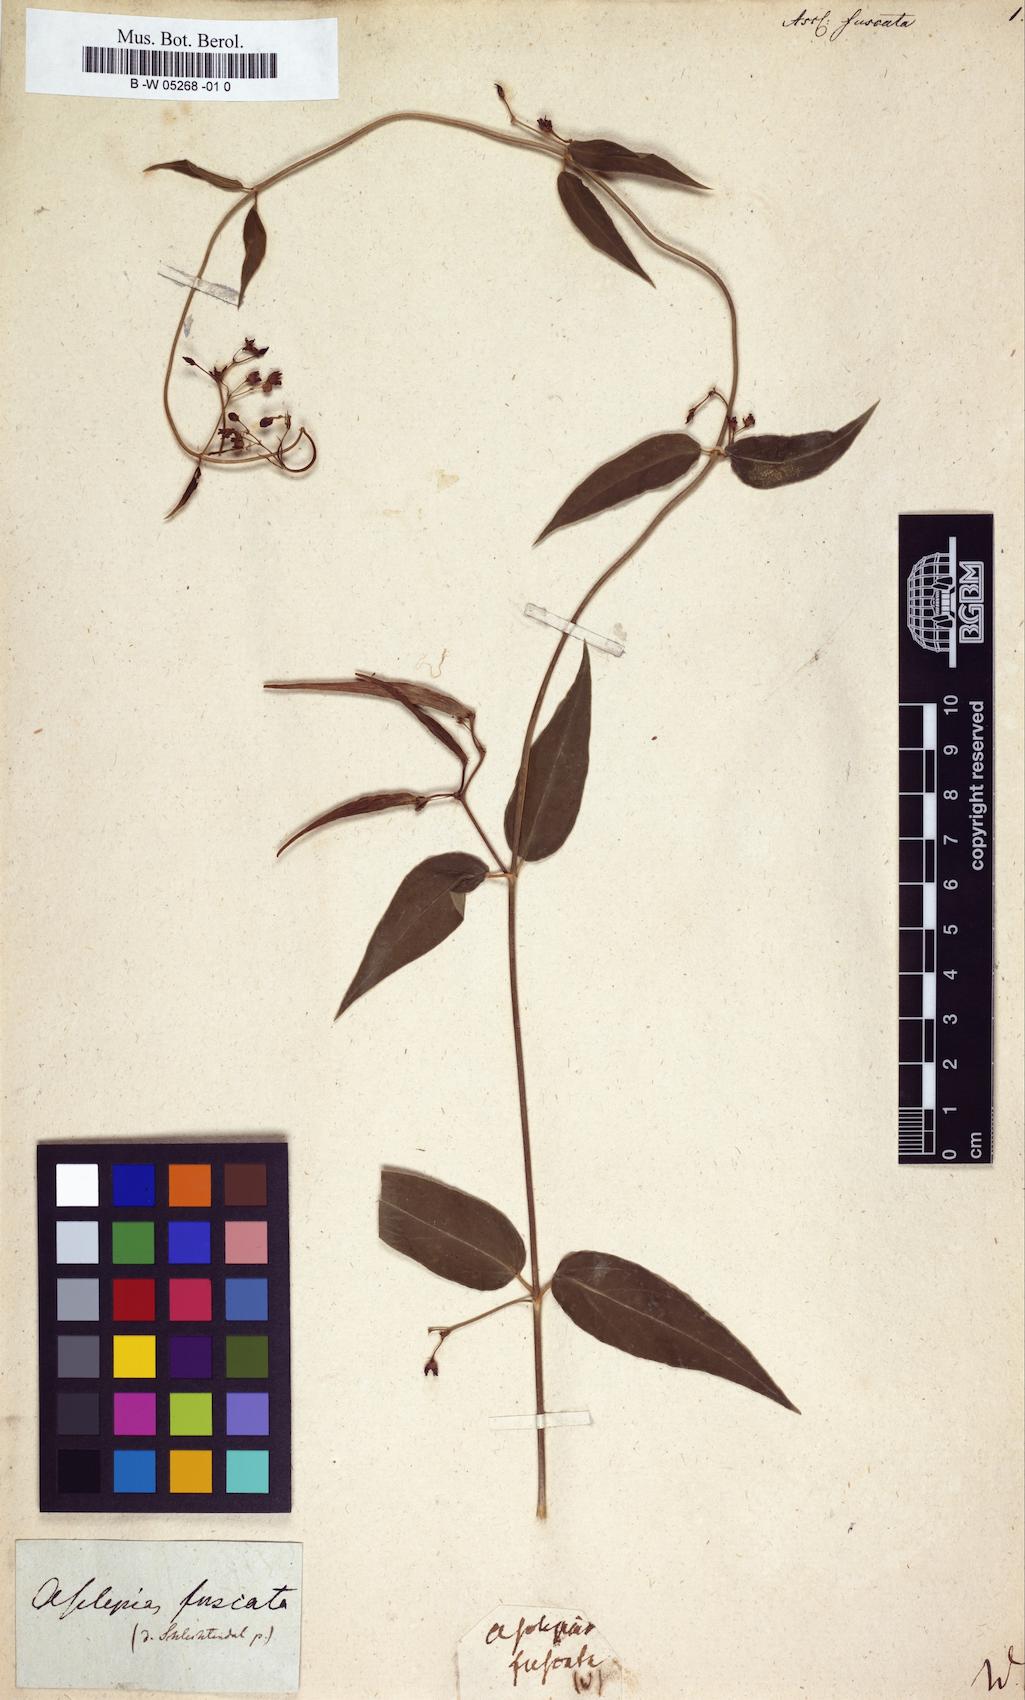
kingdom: Plantae
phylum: Tracheophyta
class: Magnoliopsida
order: Gentianales
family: Apocynaceae
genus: Vincetoxicum
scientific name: Vincetoxicum nigrum
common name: Black swallow-wort
